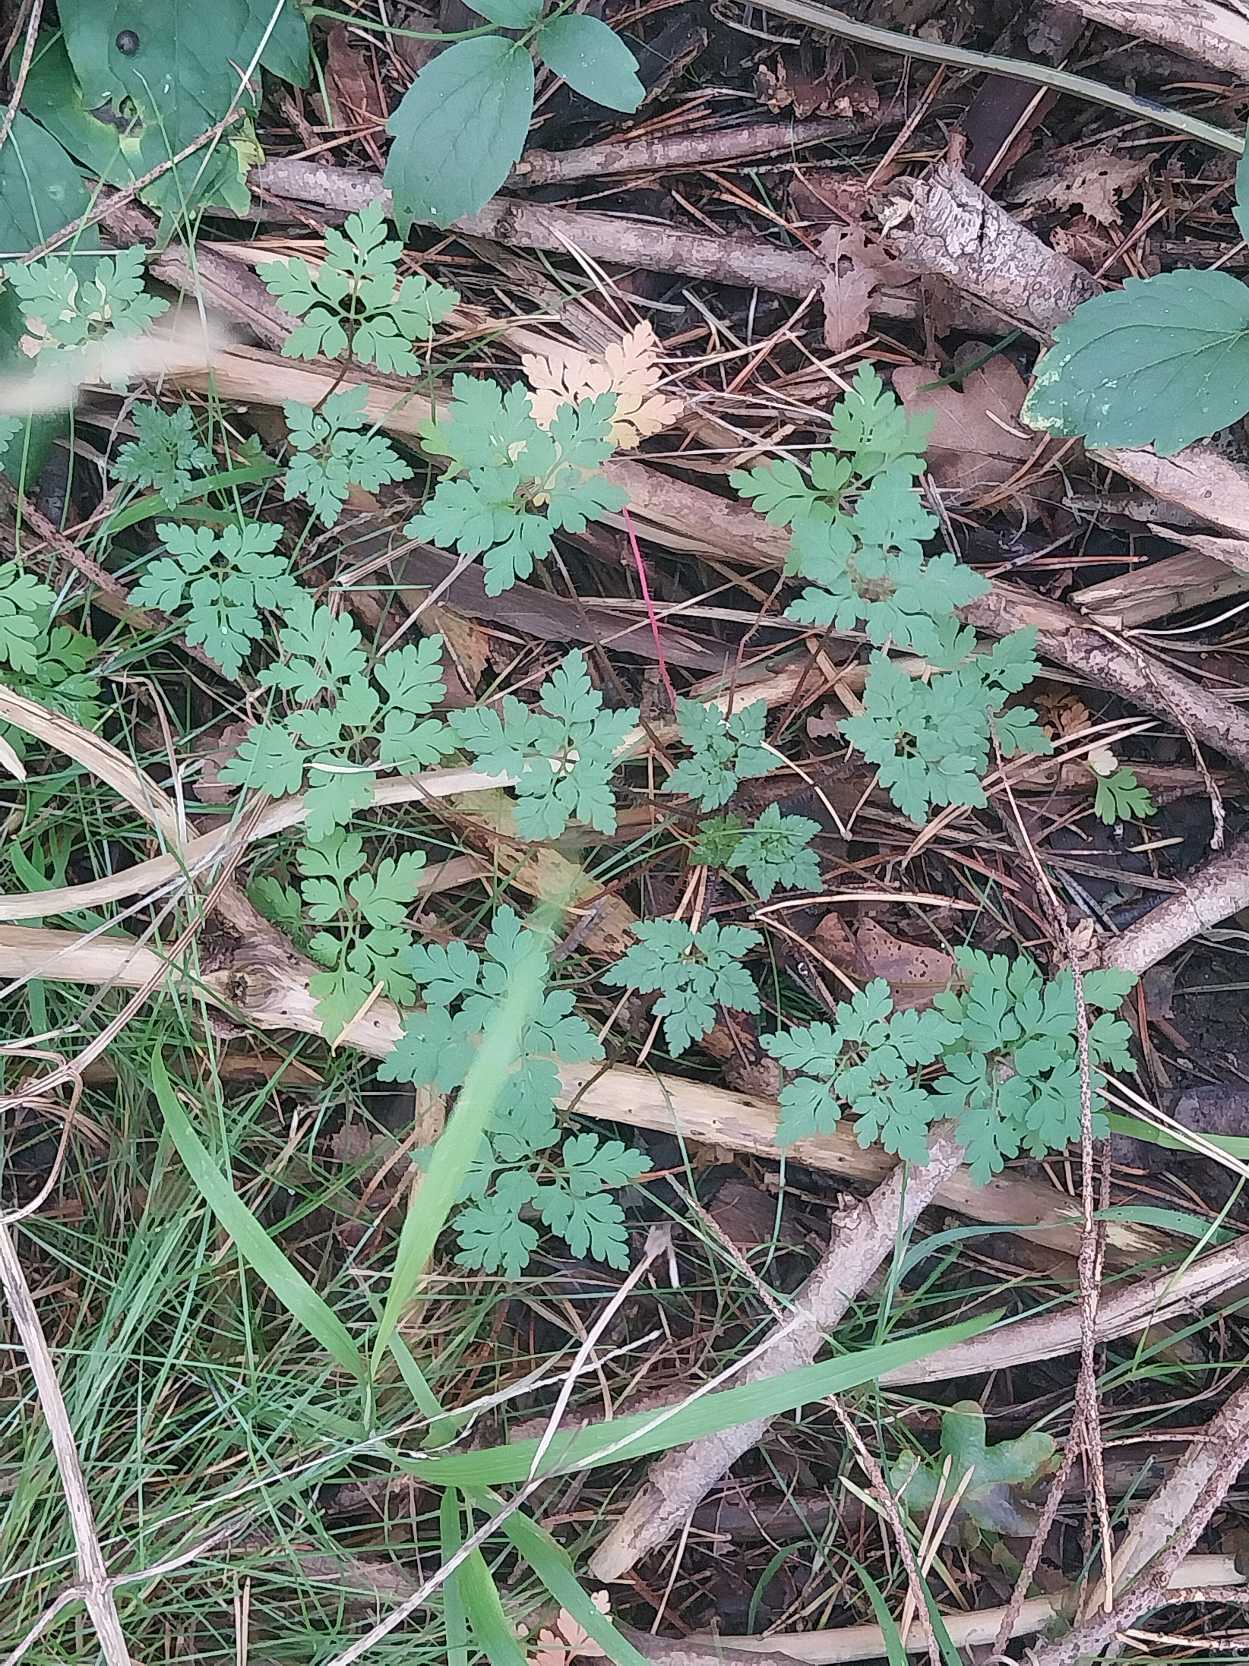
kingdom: Plantae
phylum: Tracheophyta
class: Magnoliopsida
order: Geraniales
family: Geraniaceae
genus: Geranium
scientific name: Geranium robertianum
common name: Stinkende storkenæb
